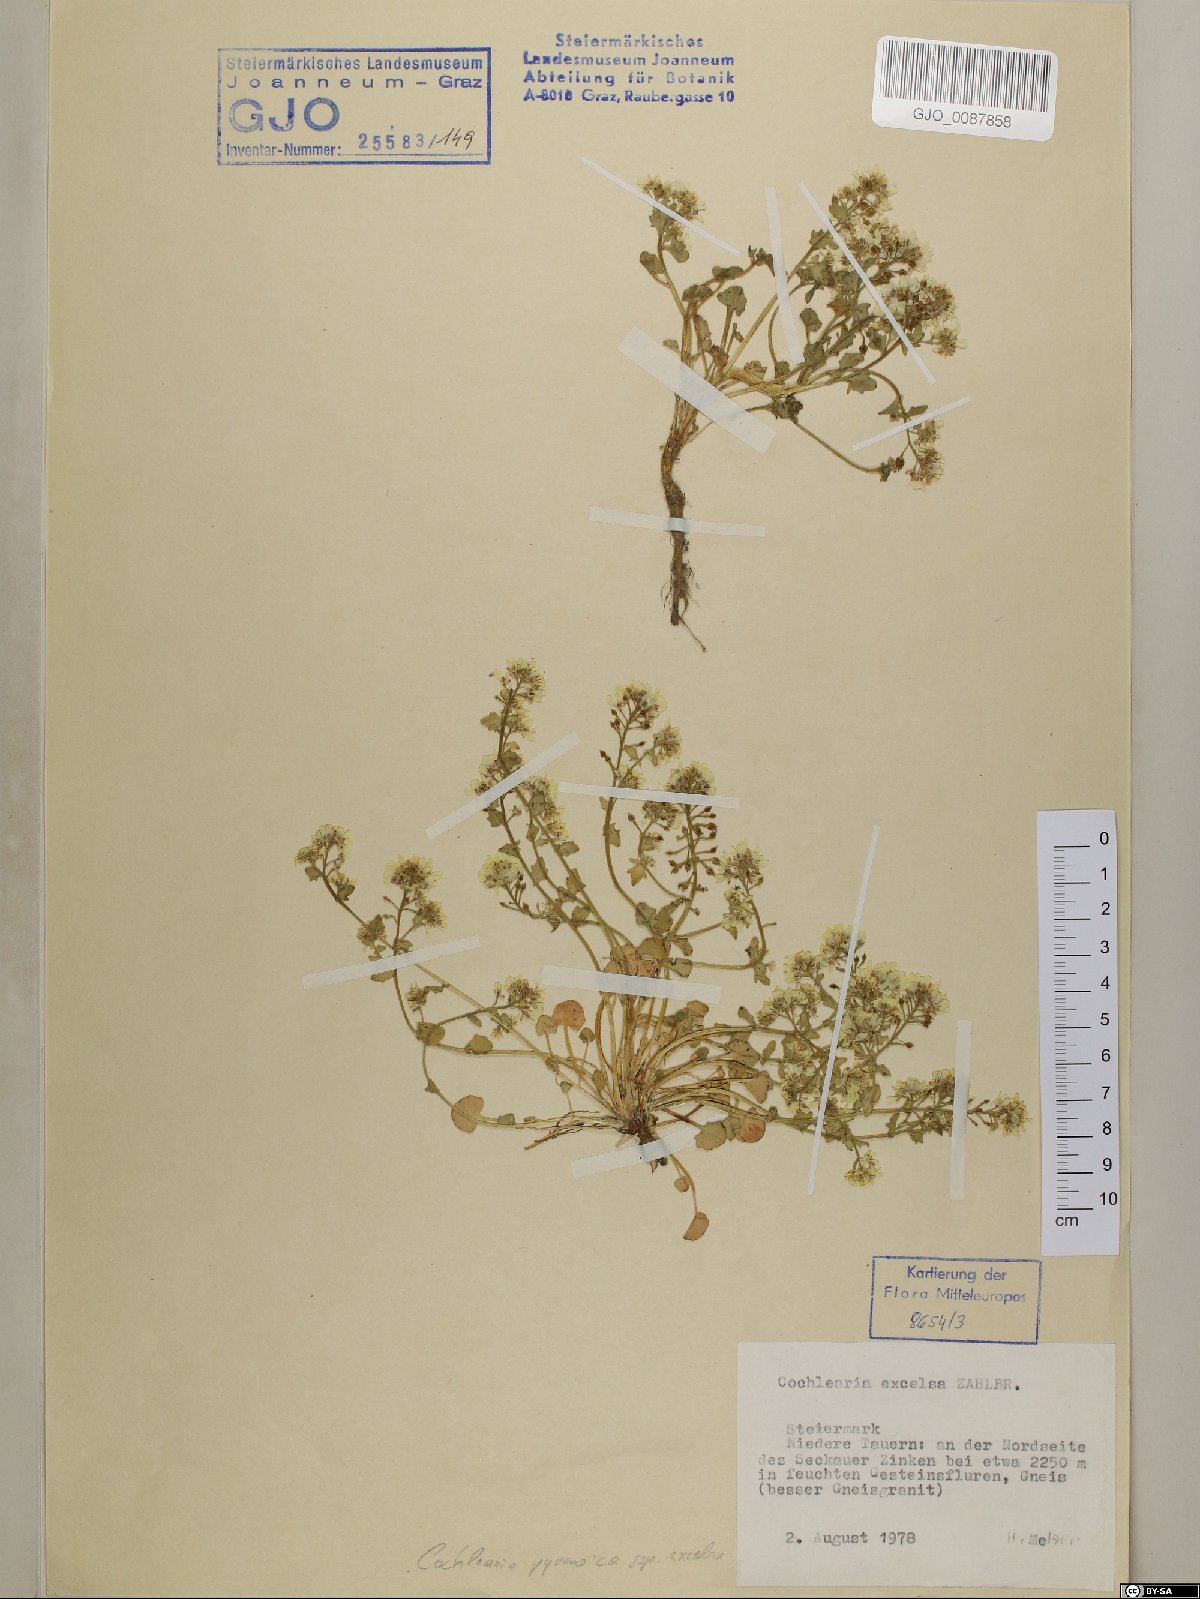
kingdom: Plantae
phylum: Tracheophyta
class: Magnoliopsida
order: Brassicales
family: Brassicaceae
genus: Cochlearia
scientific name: Cochlearia pyrenaica
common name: Upland scurvy-grass
